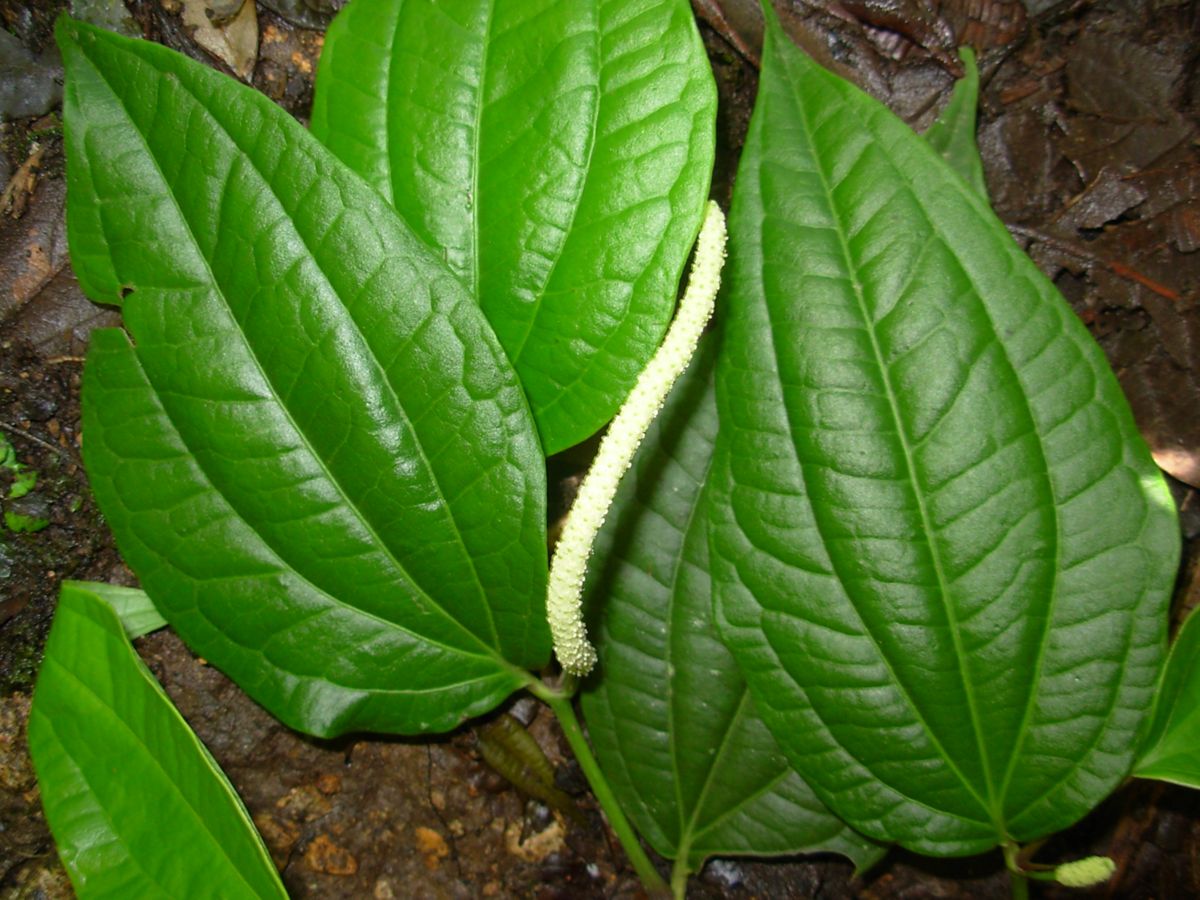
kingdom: Plantae
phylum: Tracheophyta
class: Magnoliopsida
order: Piperales
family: Piperaceae
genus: Piper
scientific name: Piper amalago
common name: Pepper-elder
